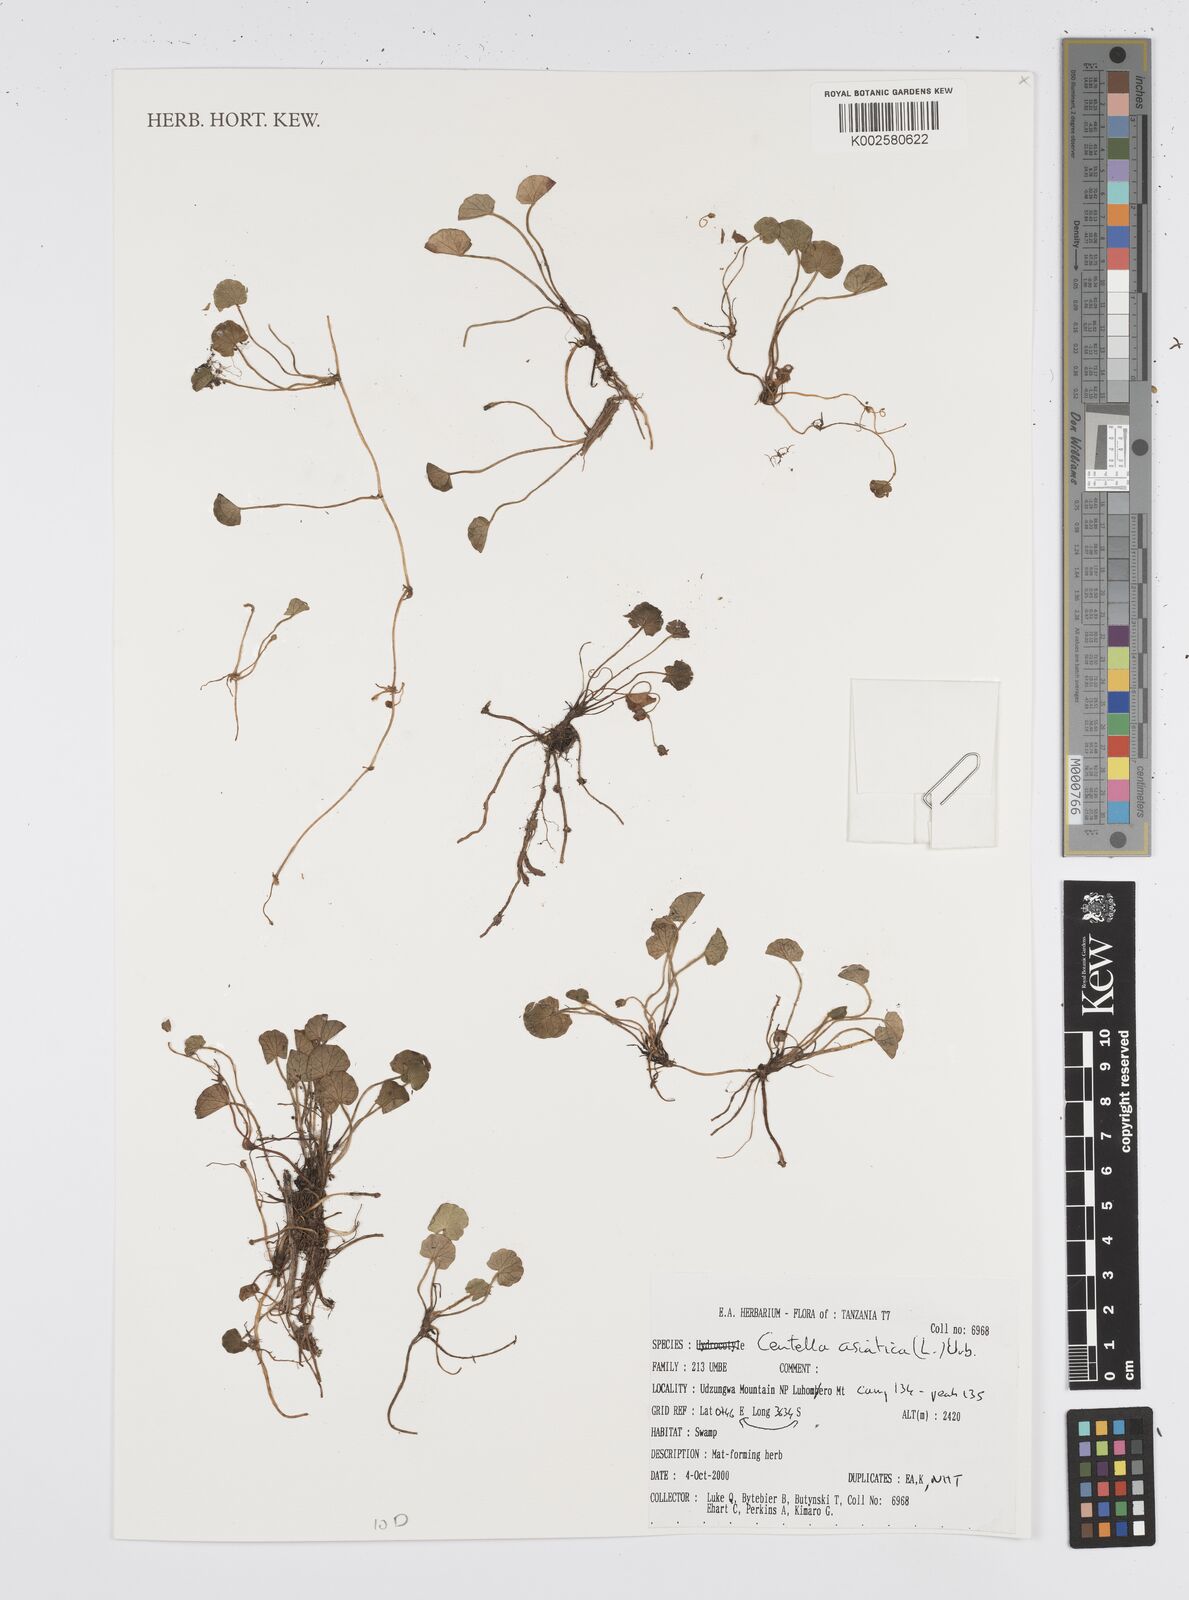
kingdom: Plantae
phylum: Tracheophyta
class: Magnoliopsida
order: Apiales
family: Apiaceae
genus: Centella
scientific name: Centella asiatica
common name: Spadeleaf
